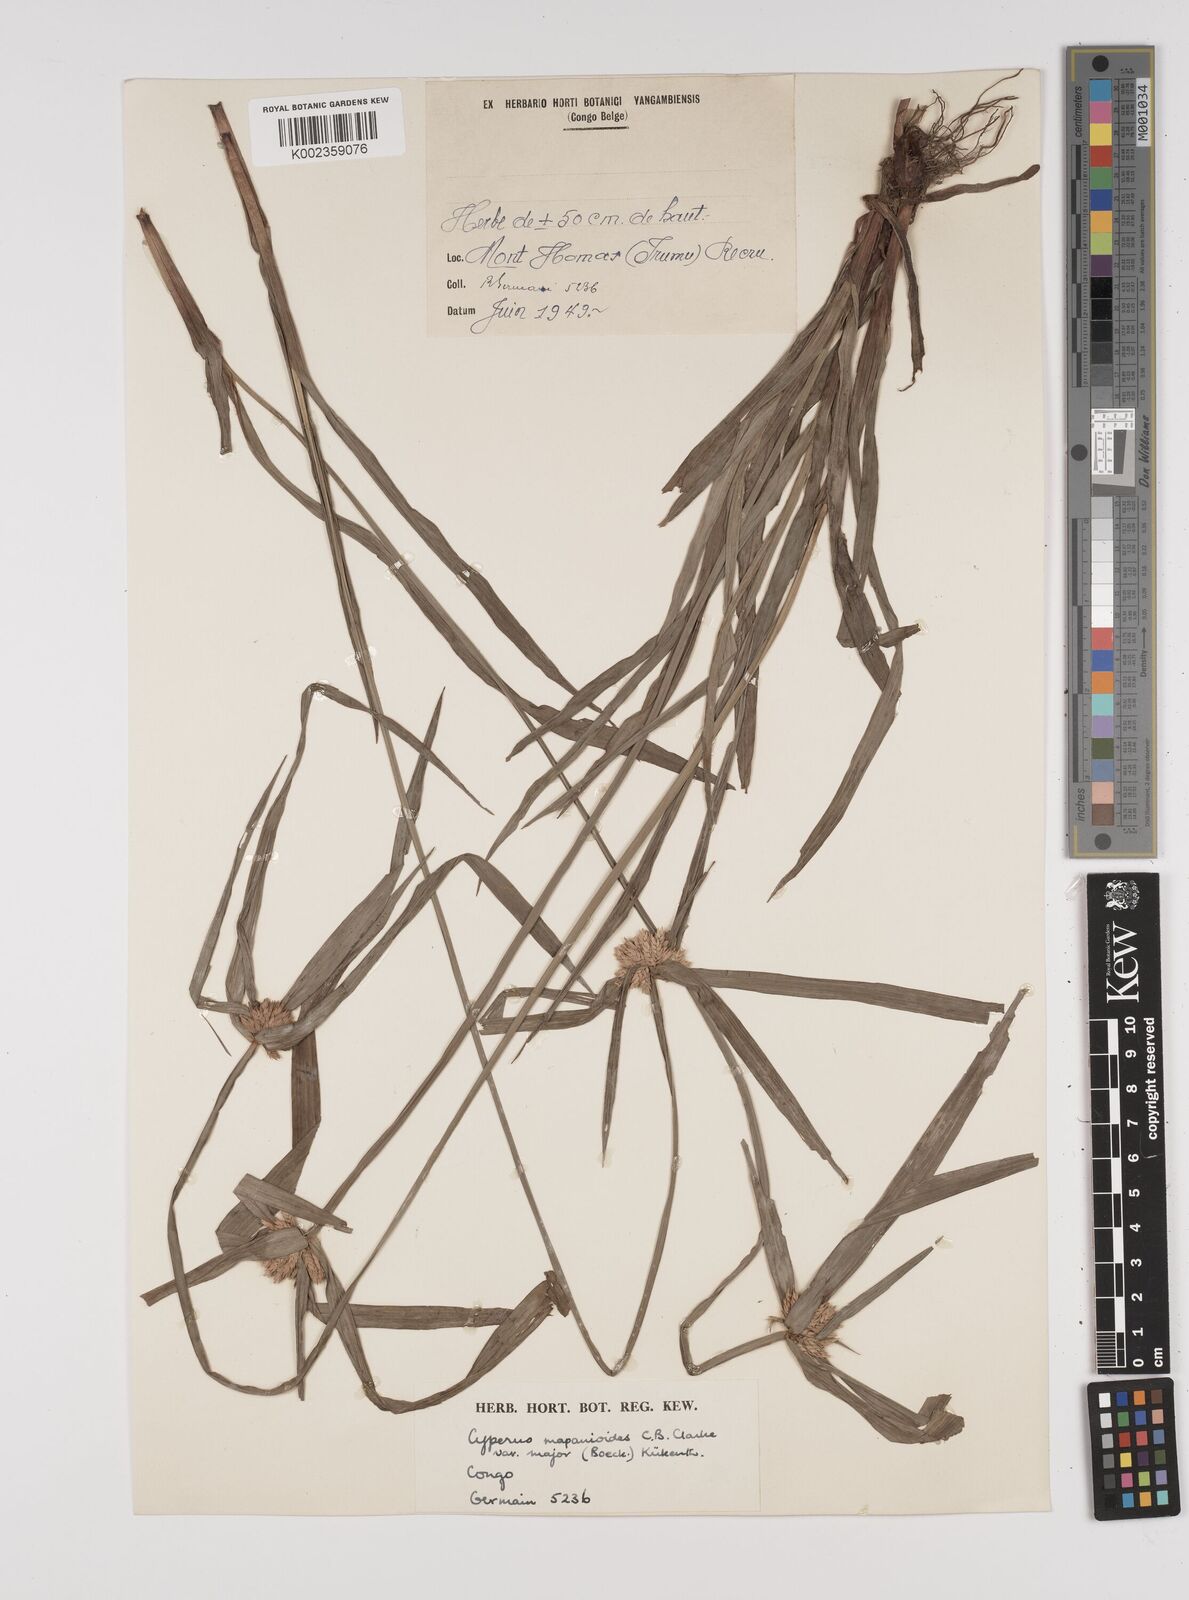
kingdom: Plantae
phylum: Tracheophyta
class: Liliopsida
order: Poales
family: Cyperaceae
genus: Cyperus
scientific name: Cyperus mapanioides
